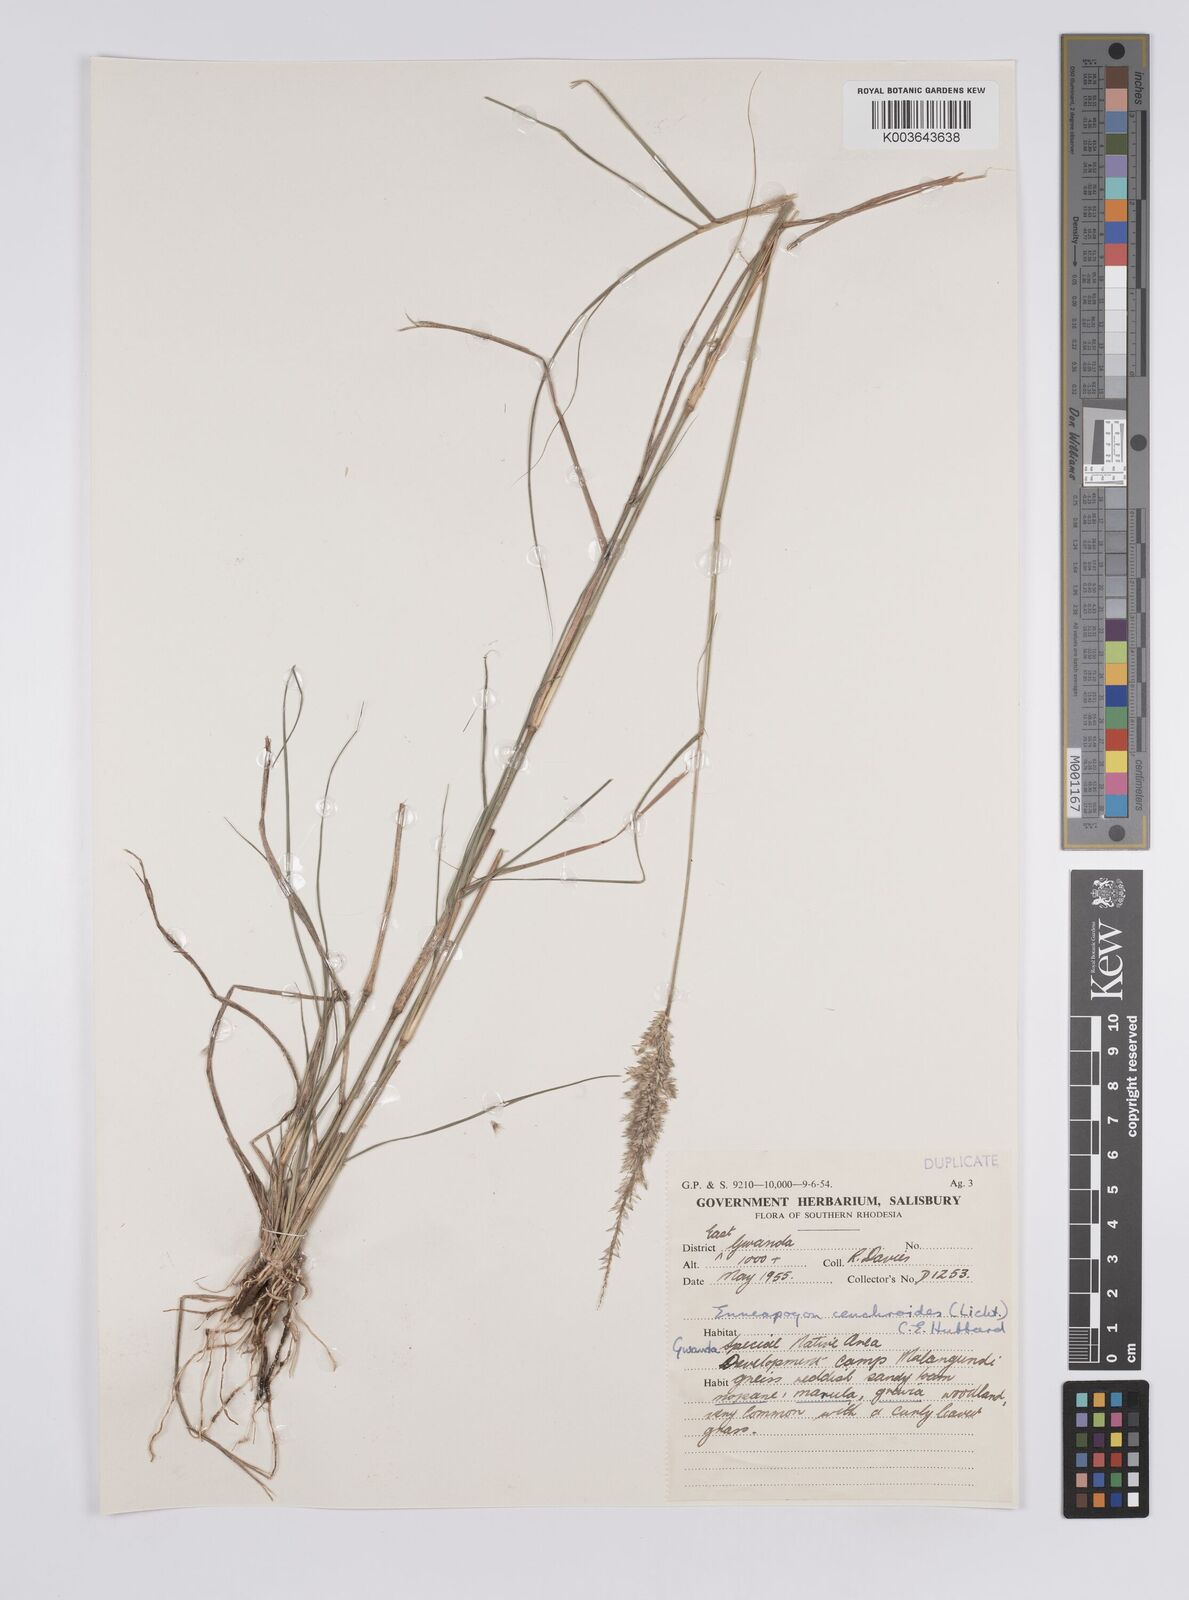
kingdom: Plantae
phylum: Tracheophyta
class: Liliopsida
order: Poales
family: Poaceae
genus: Enneapogon
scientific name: Enneapogon cenchroides
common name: Soft feather pappusgrass
